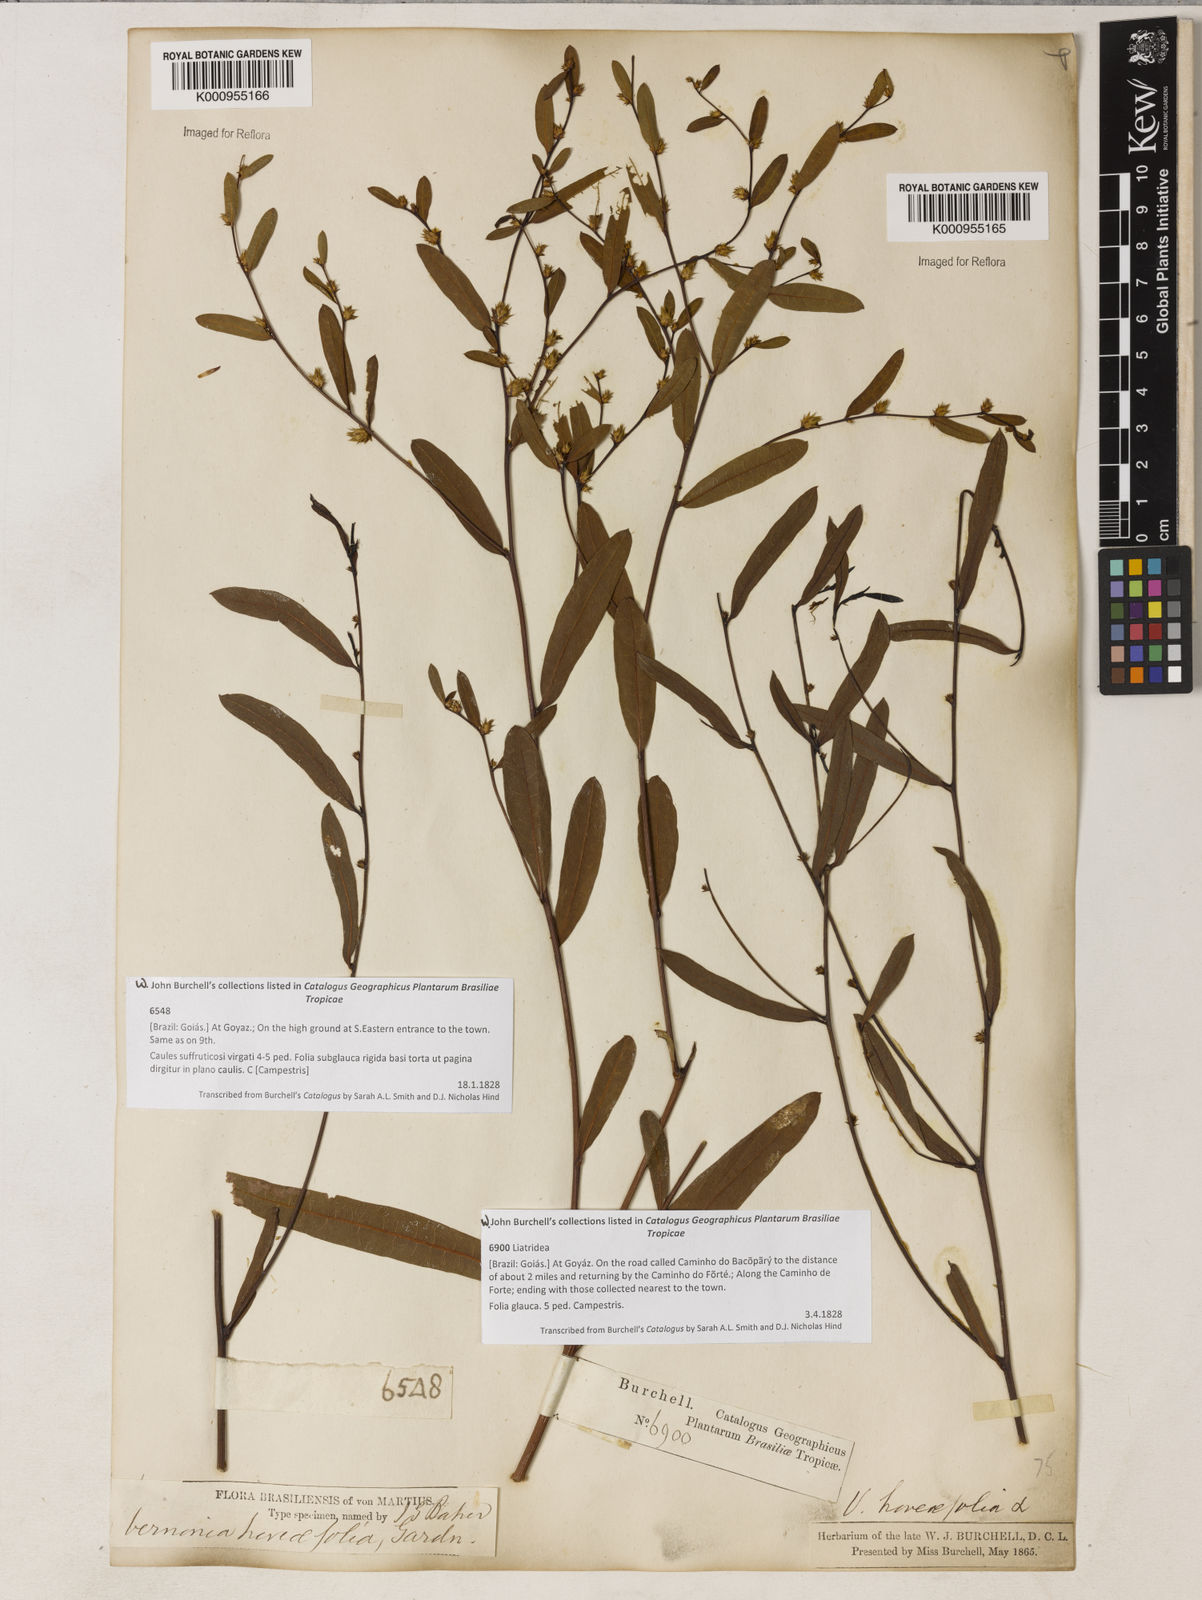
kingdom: Plantae
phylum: Tracheophyta
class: Magnoliopsida
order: Asterales
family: Asteraceae
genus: Lessingianthus
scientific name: Lessingianthus hoveifolius
